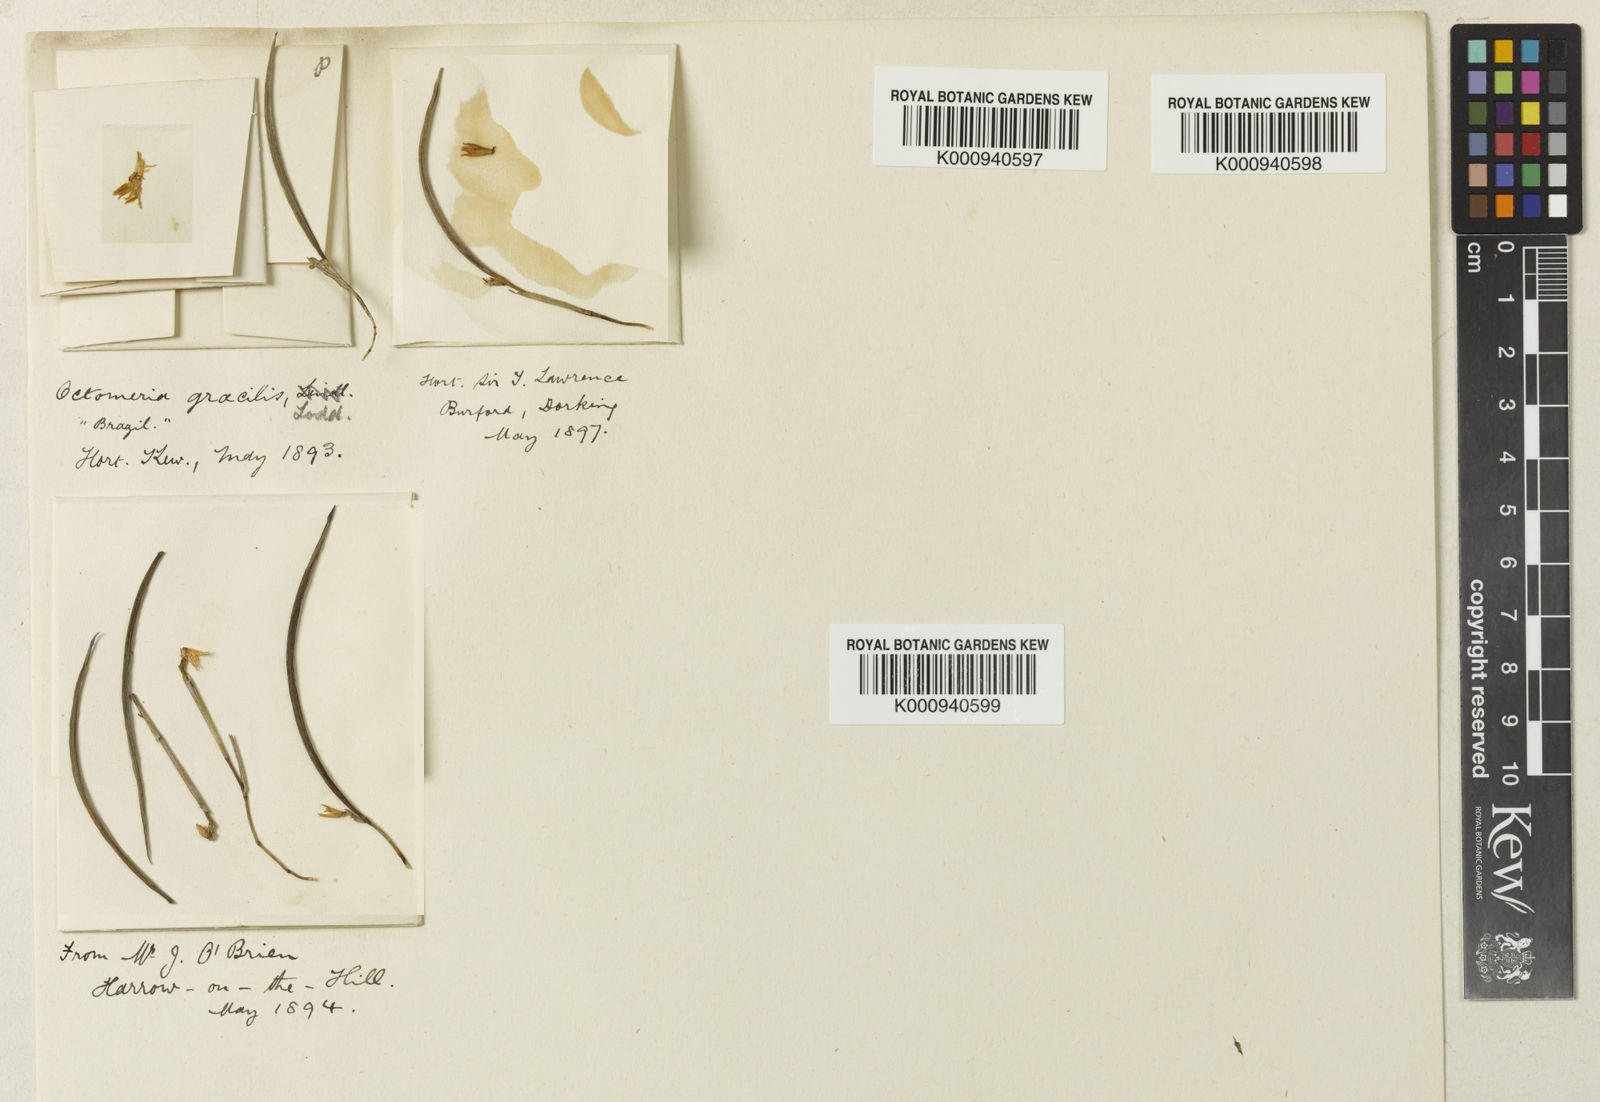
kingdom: Plantae
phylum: Tracheophyta
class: Liliopsida
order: Asparagales
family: Orchidaceae
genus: Octomeria
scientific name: Octomeria gracilis
